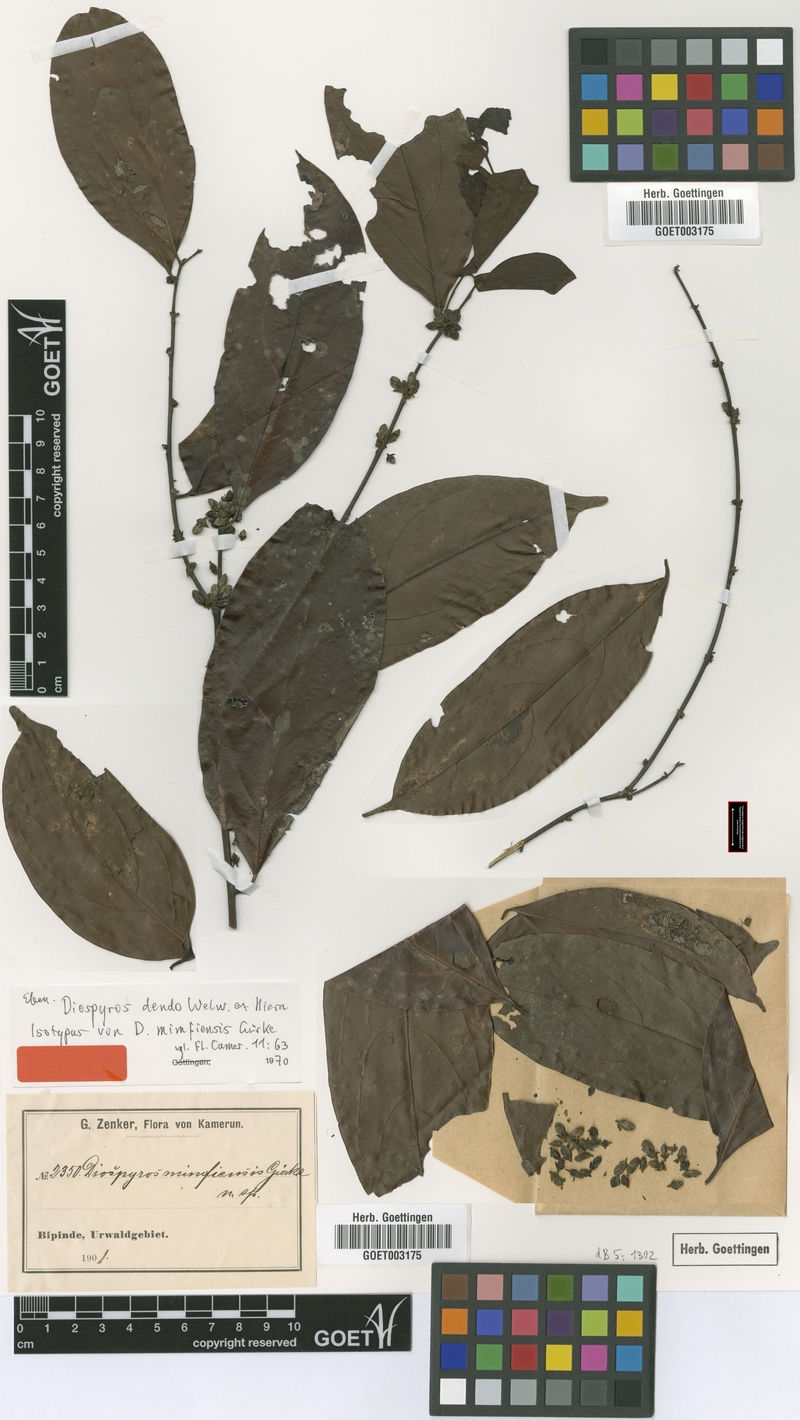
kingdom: Plantae
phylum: Tracheophyta
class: Magnoliopsida
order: Ericales
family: Ebenaceae
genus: Diospyros
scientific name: Diospyros dendo
